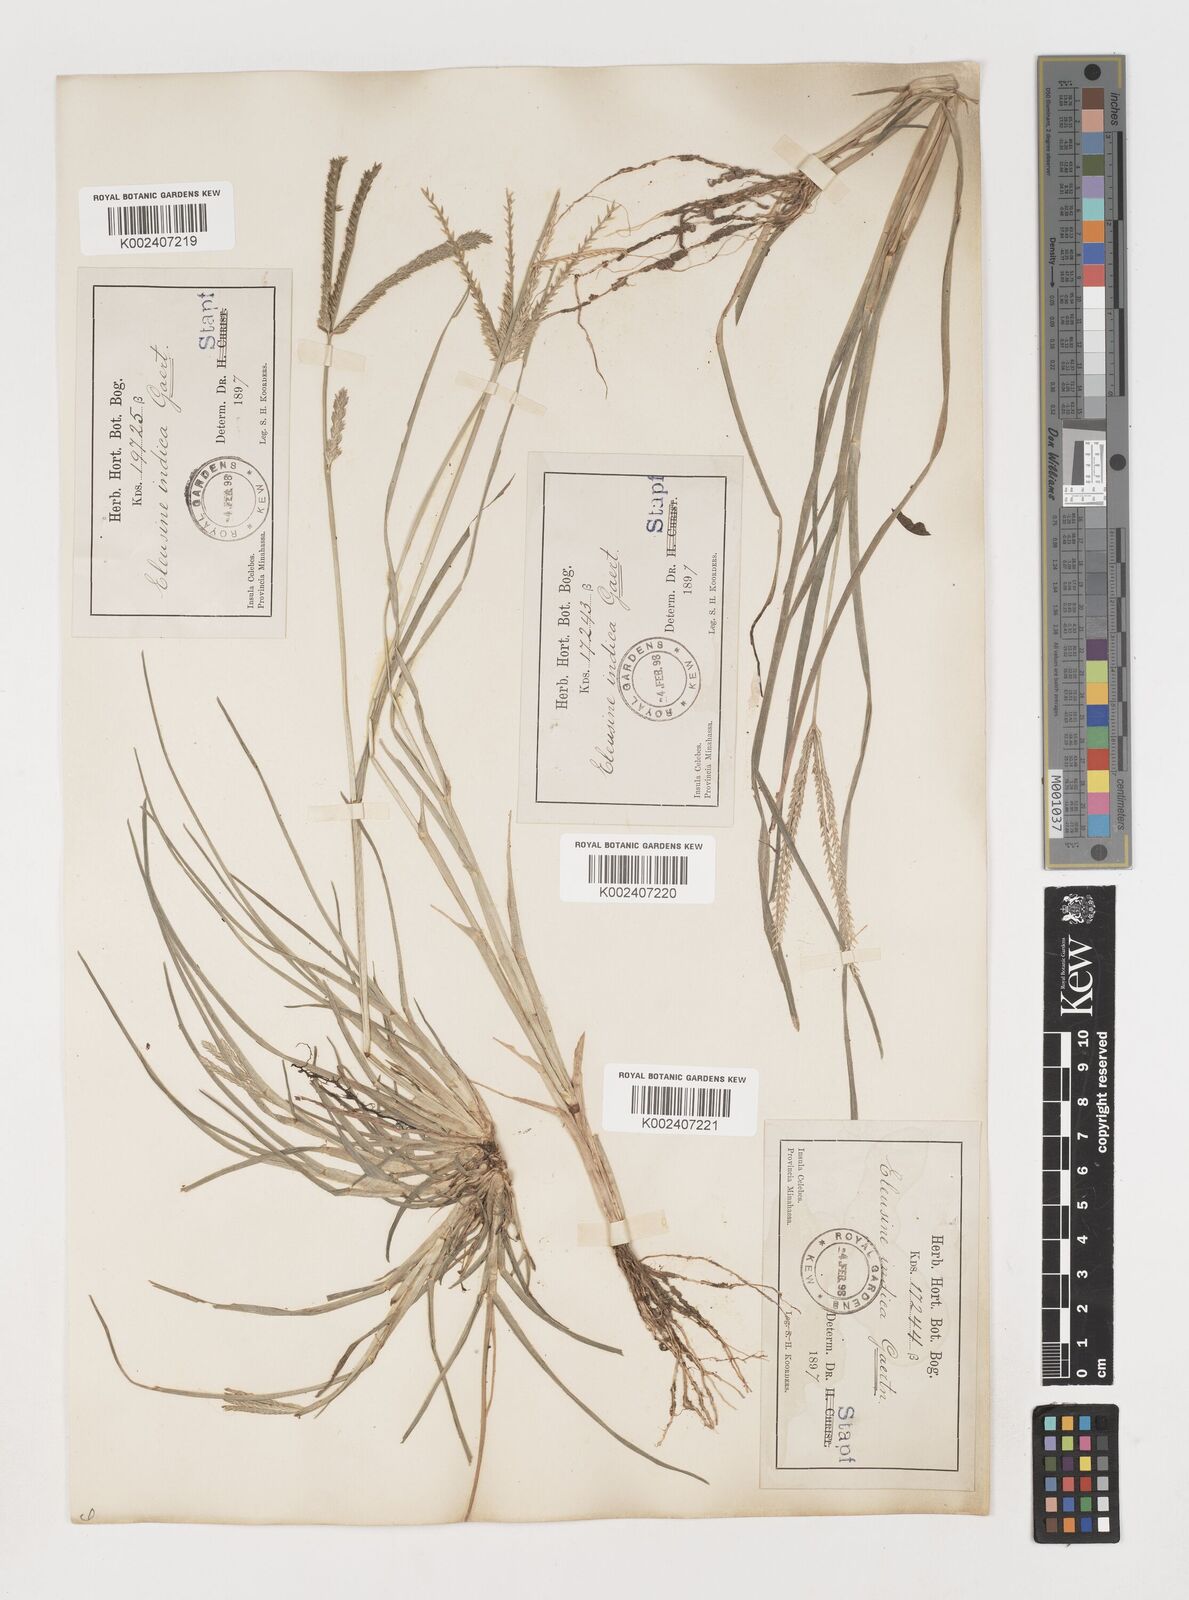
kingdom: Plantae
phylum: Tracheophyta
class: Liliopsida
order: Poales
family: Poaceae
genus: Eleusine
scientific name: Eleusine indica
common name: Yard-grass
